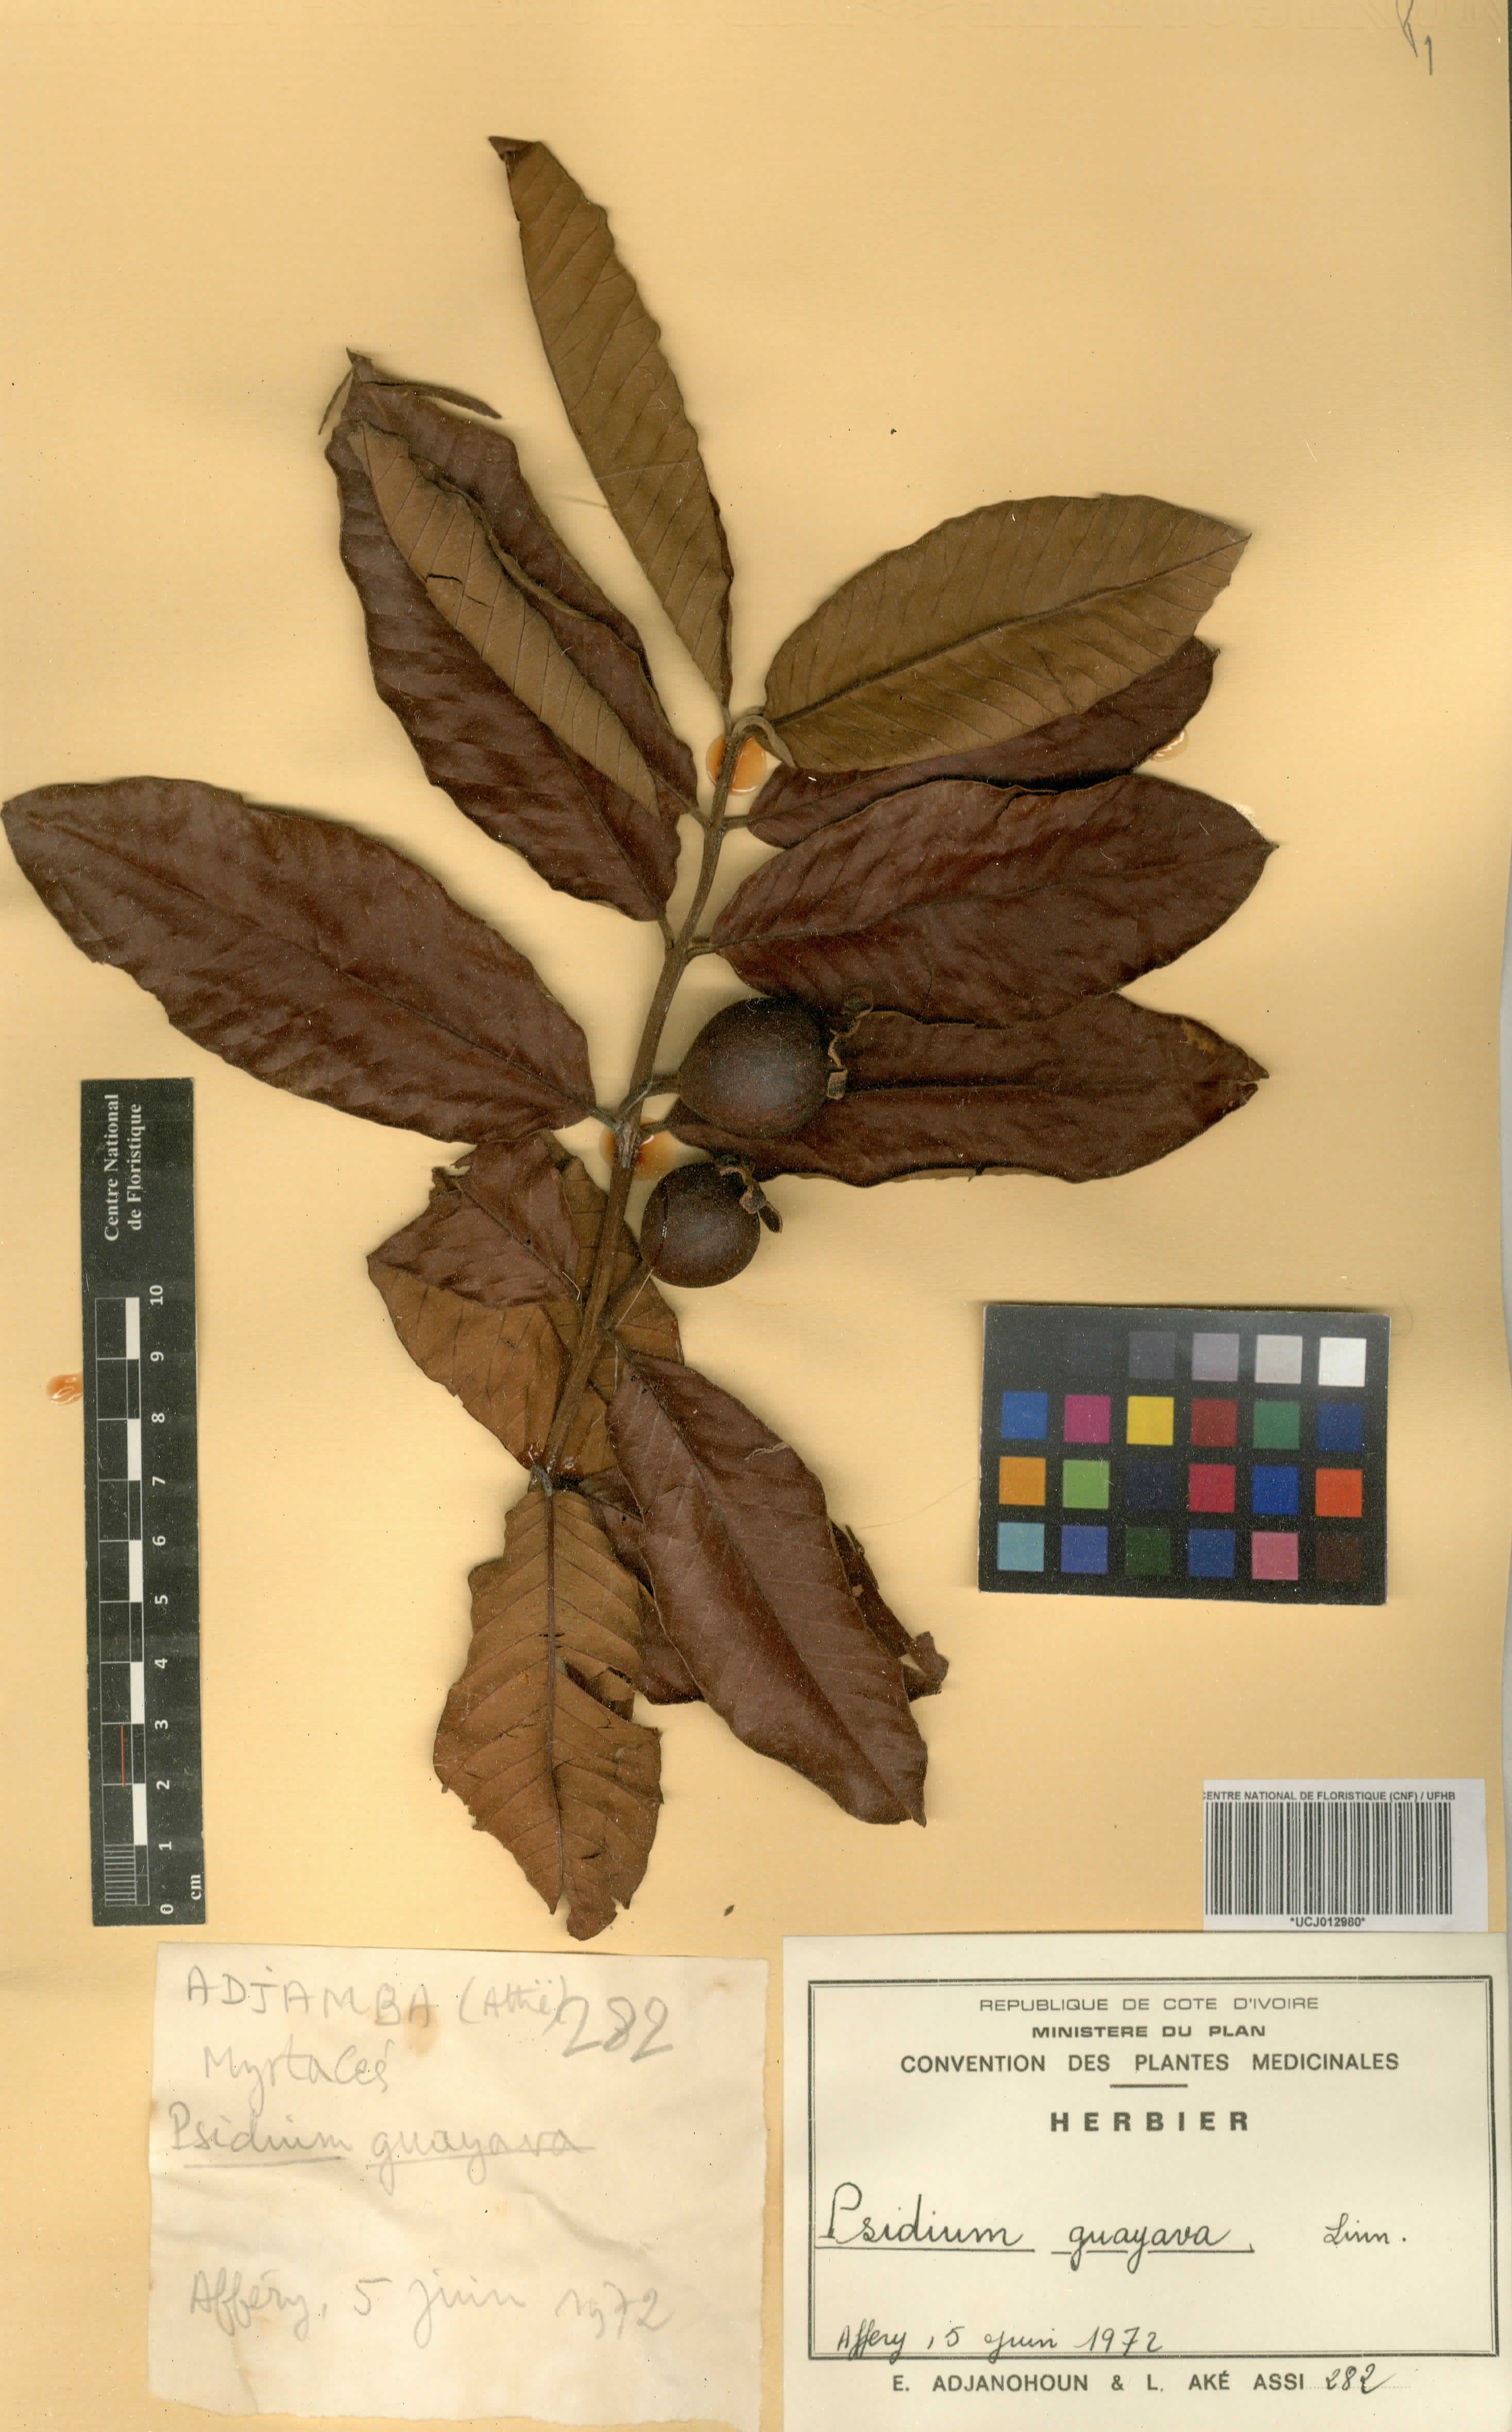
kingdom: Plantae
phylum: Tracheophyta
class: Magnoliopsida
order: Myrtales
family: Myrtaceae
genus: Psidium
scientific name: Psidium guajava
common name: Guava
